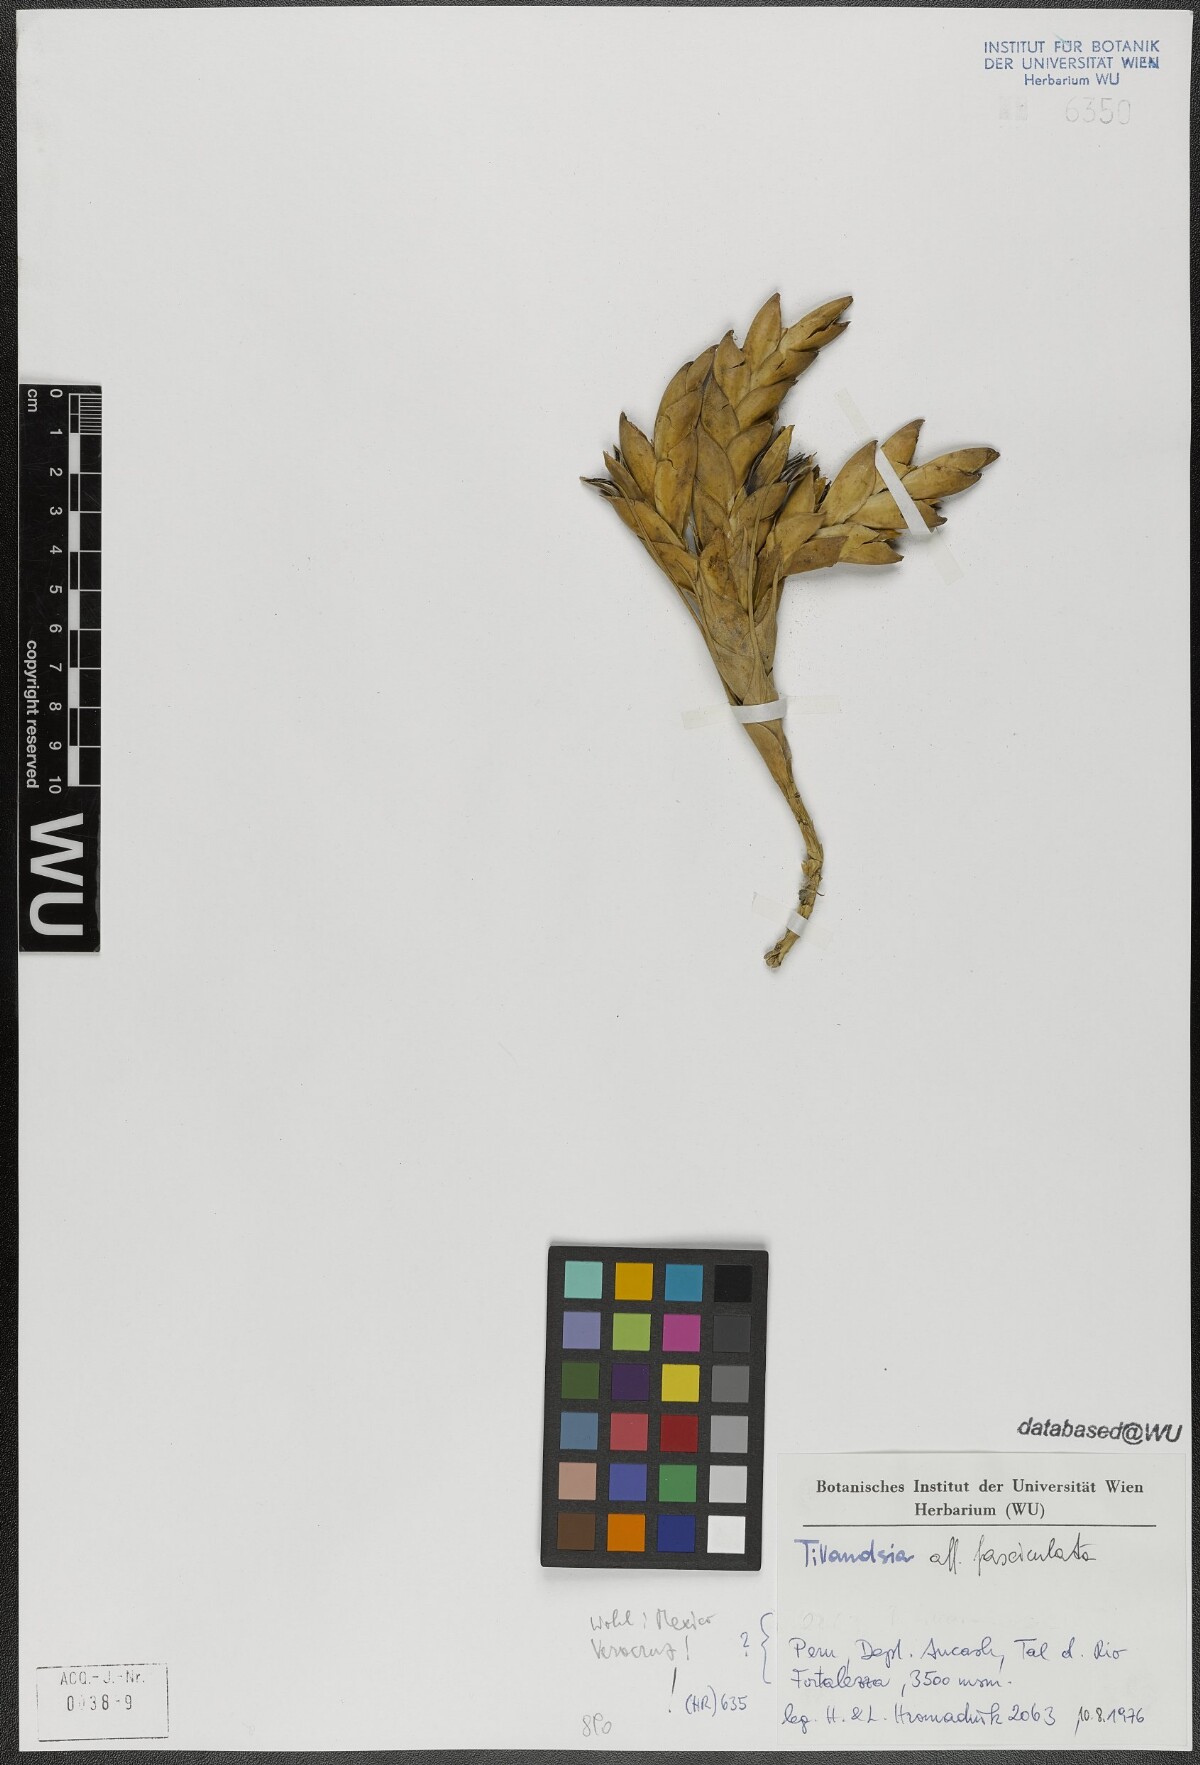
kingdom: Plantae
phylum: Tracheophyta
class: Liliopsida
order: Poales
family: Bromeliaceae
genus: Tillandsia
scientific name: Tillandsia fasciculata
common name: Giant airplant
